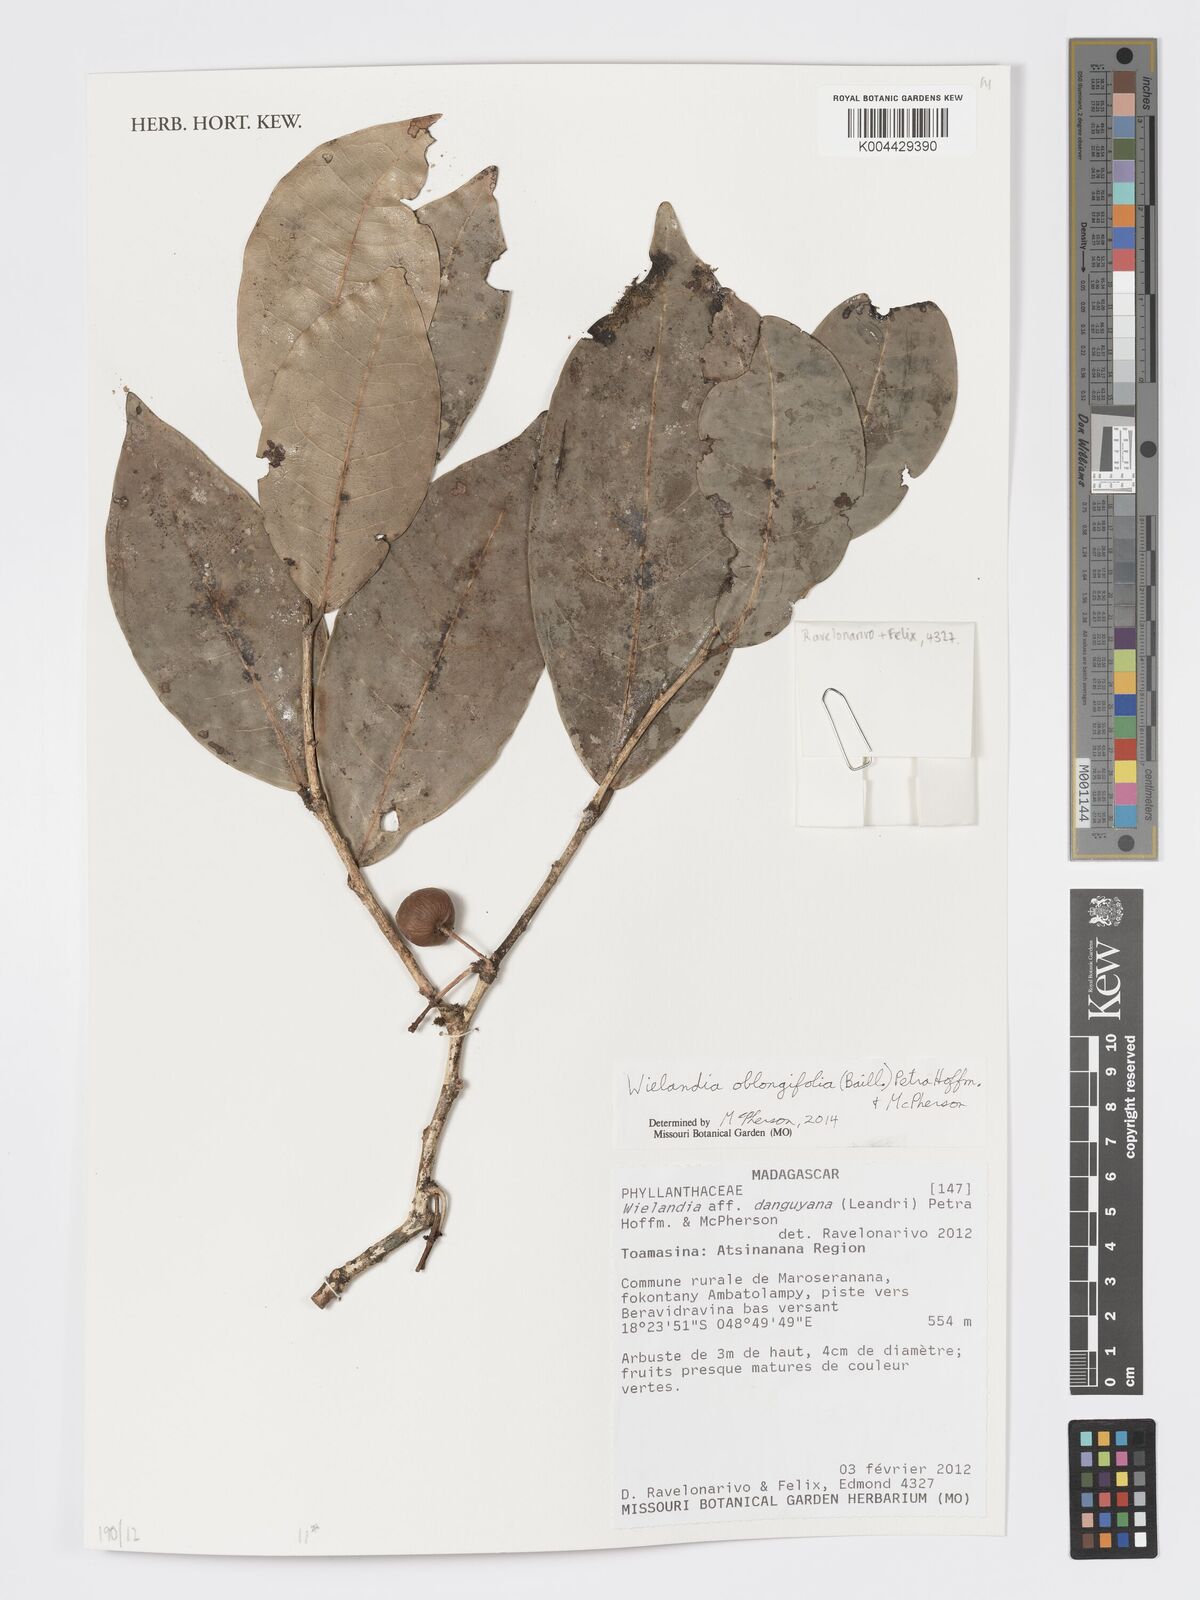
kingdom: Plantae
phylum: Tracheophyta
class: Magnoliopsida
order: Malpighiales
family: Phyllanthaceae
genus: Wielandia
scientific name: Wielandia oblongifolia
